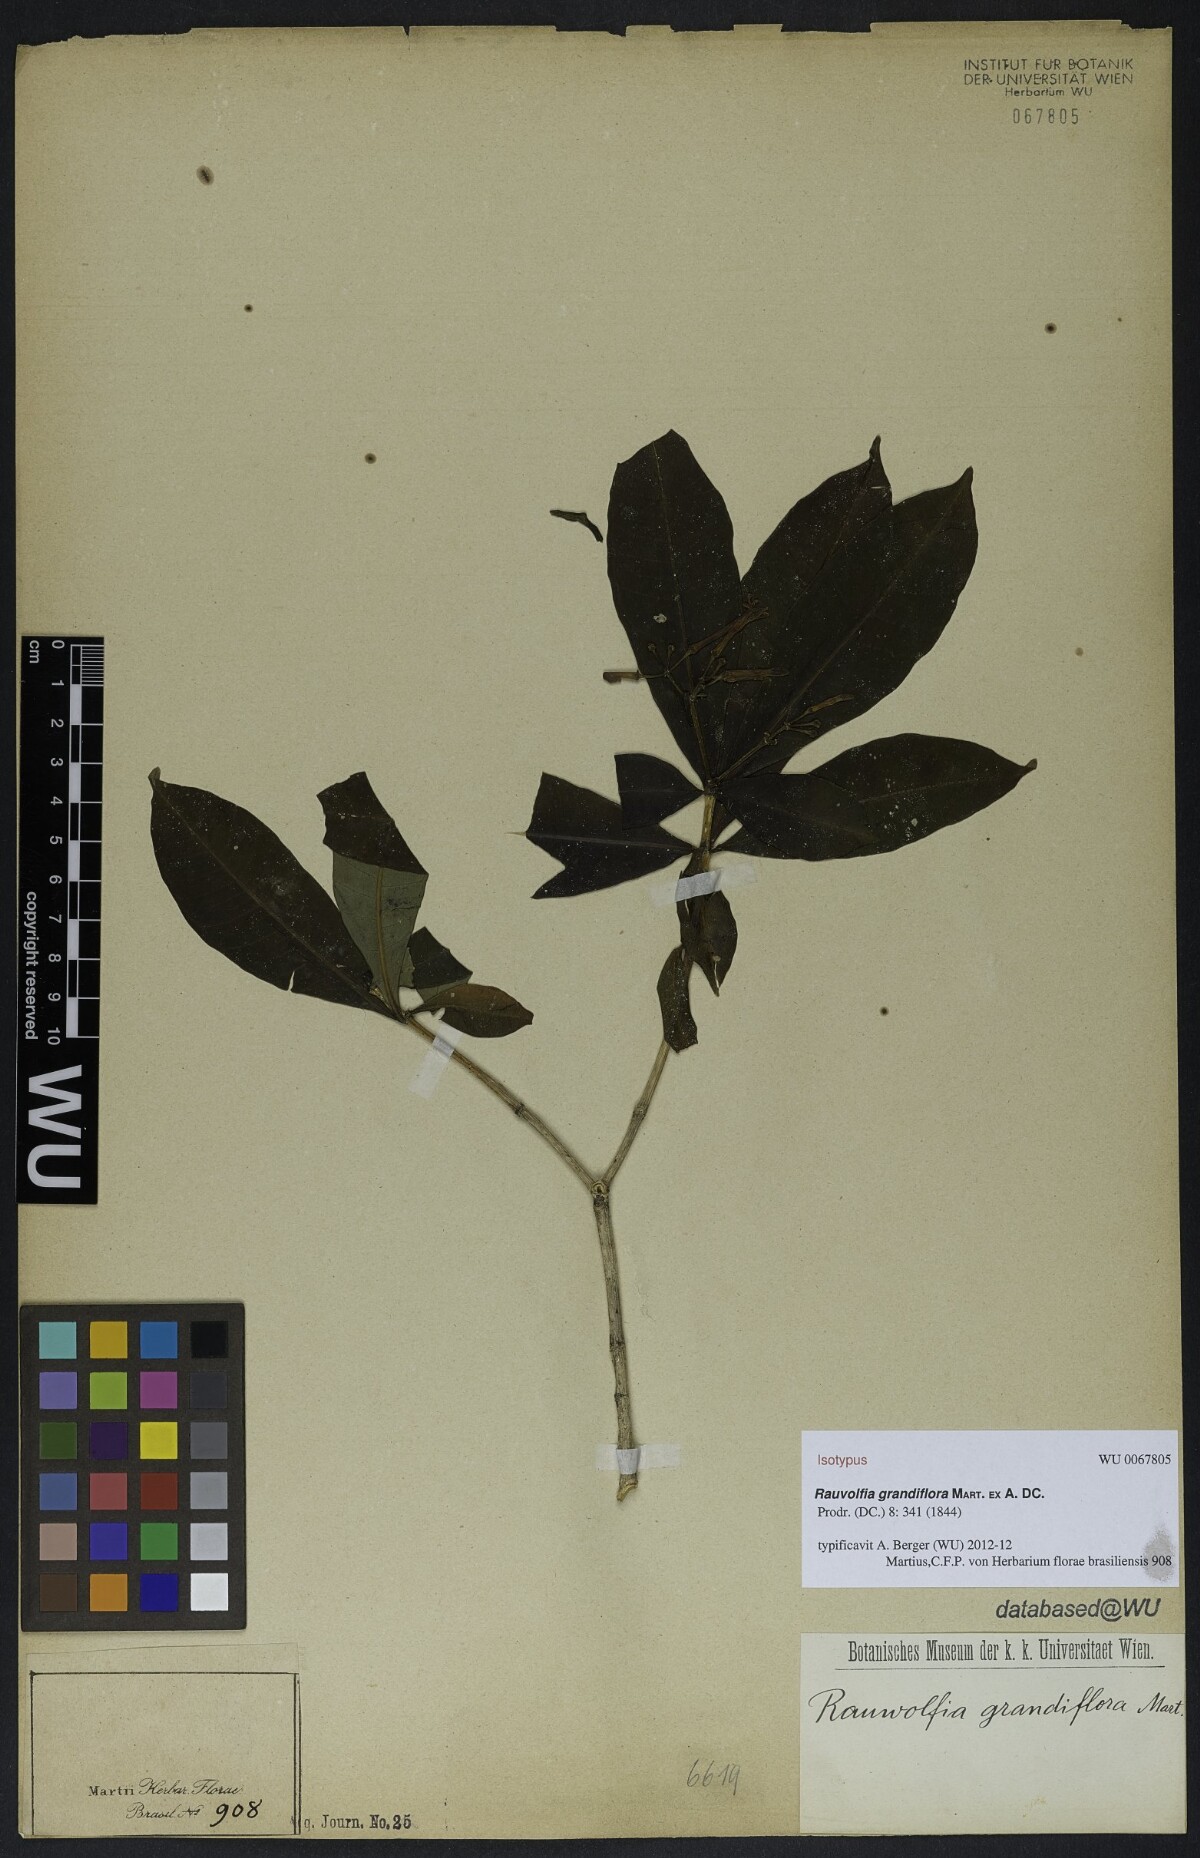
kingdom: Plantae
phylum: Tracheophyta
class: Magnoliopsida
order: Gentianales
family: Apocynaceae
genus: Rauvolfia
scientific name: Rauvolfia grandiflora
